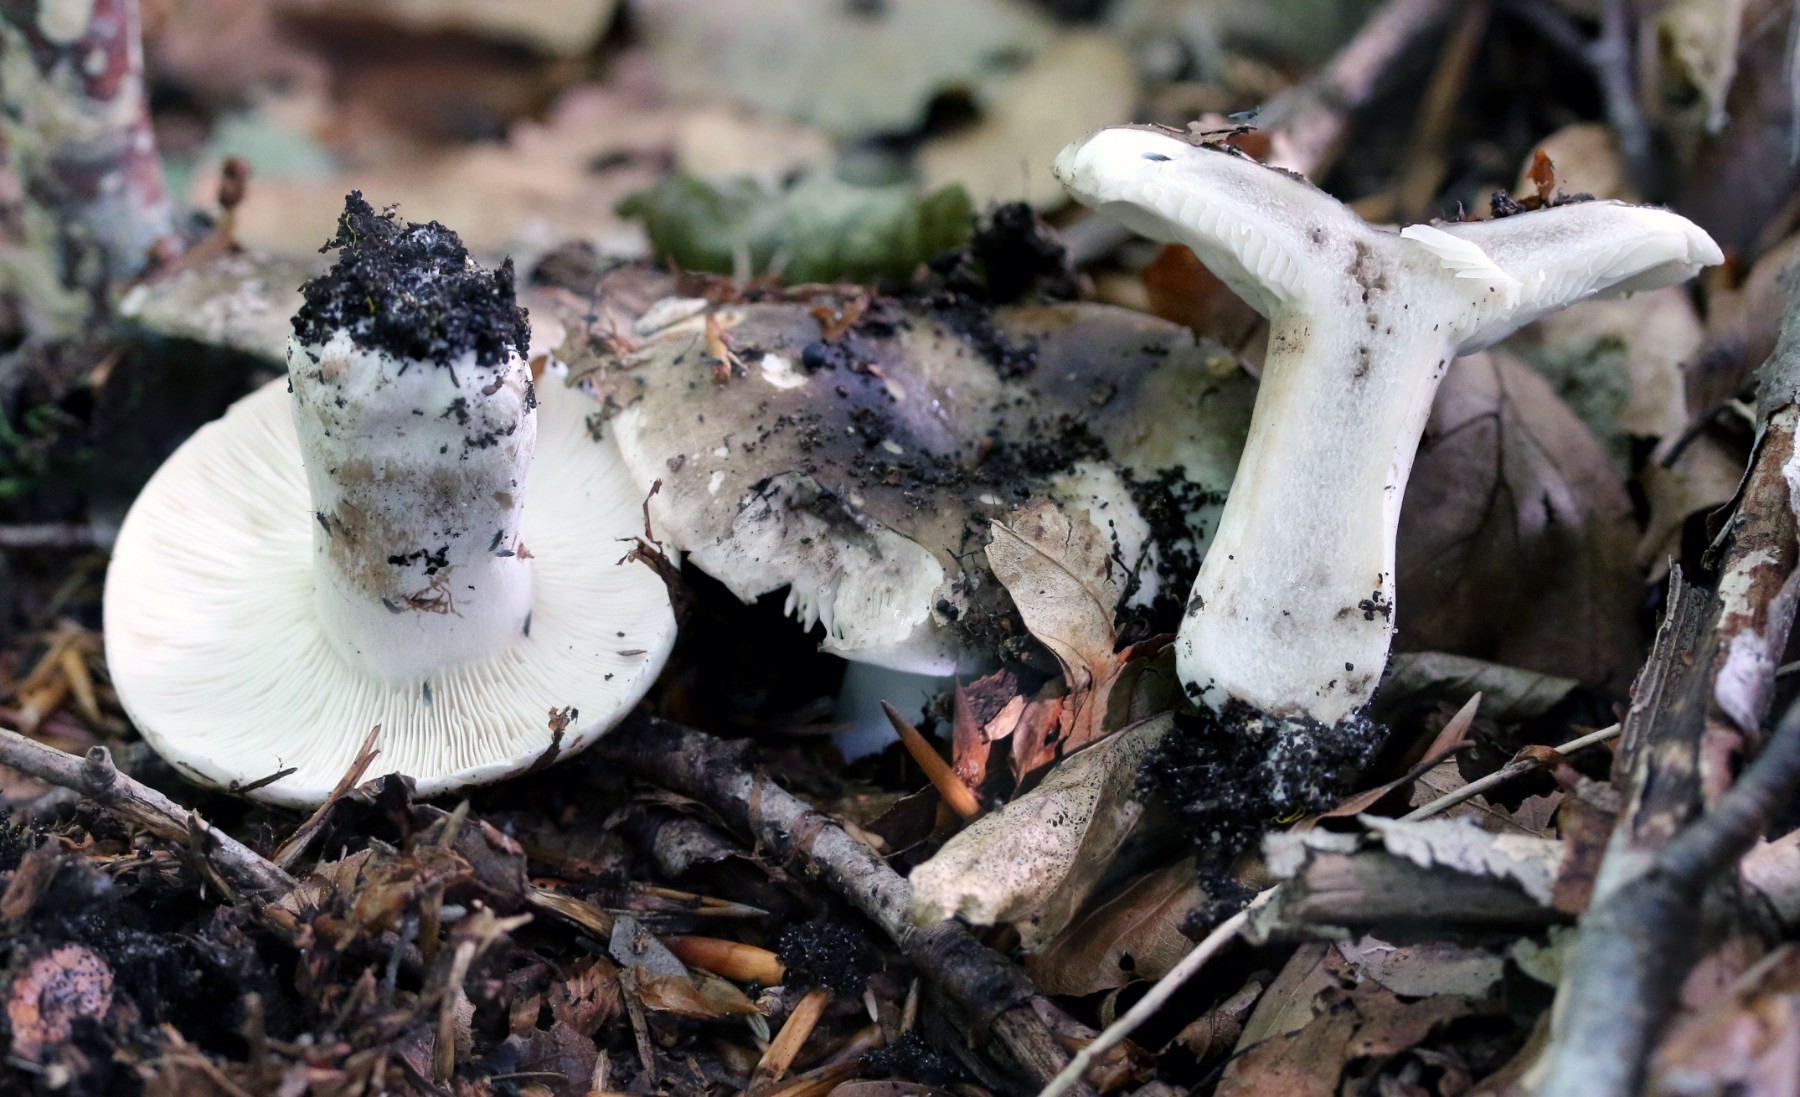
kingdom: Fungi
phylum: Basidiomycota
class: Agaricomycetes
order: Russulales
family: Russulaceae
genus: Russula
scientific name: Russula densifolia
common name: tætbladet skørhat
